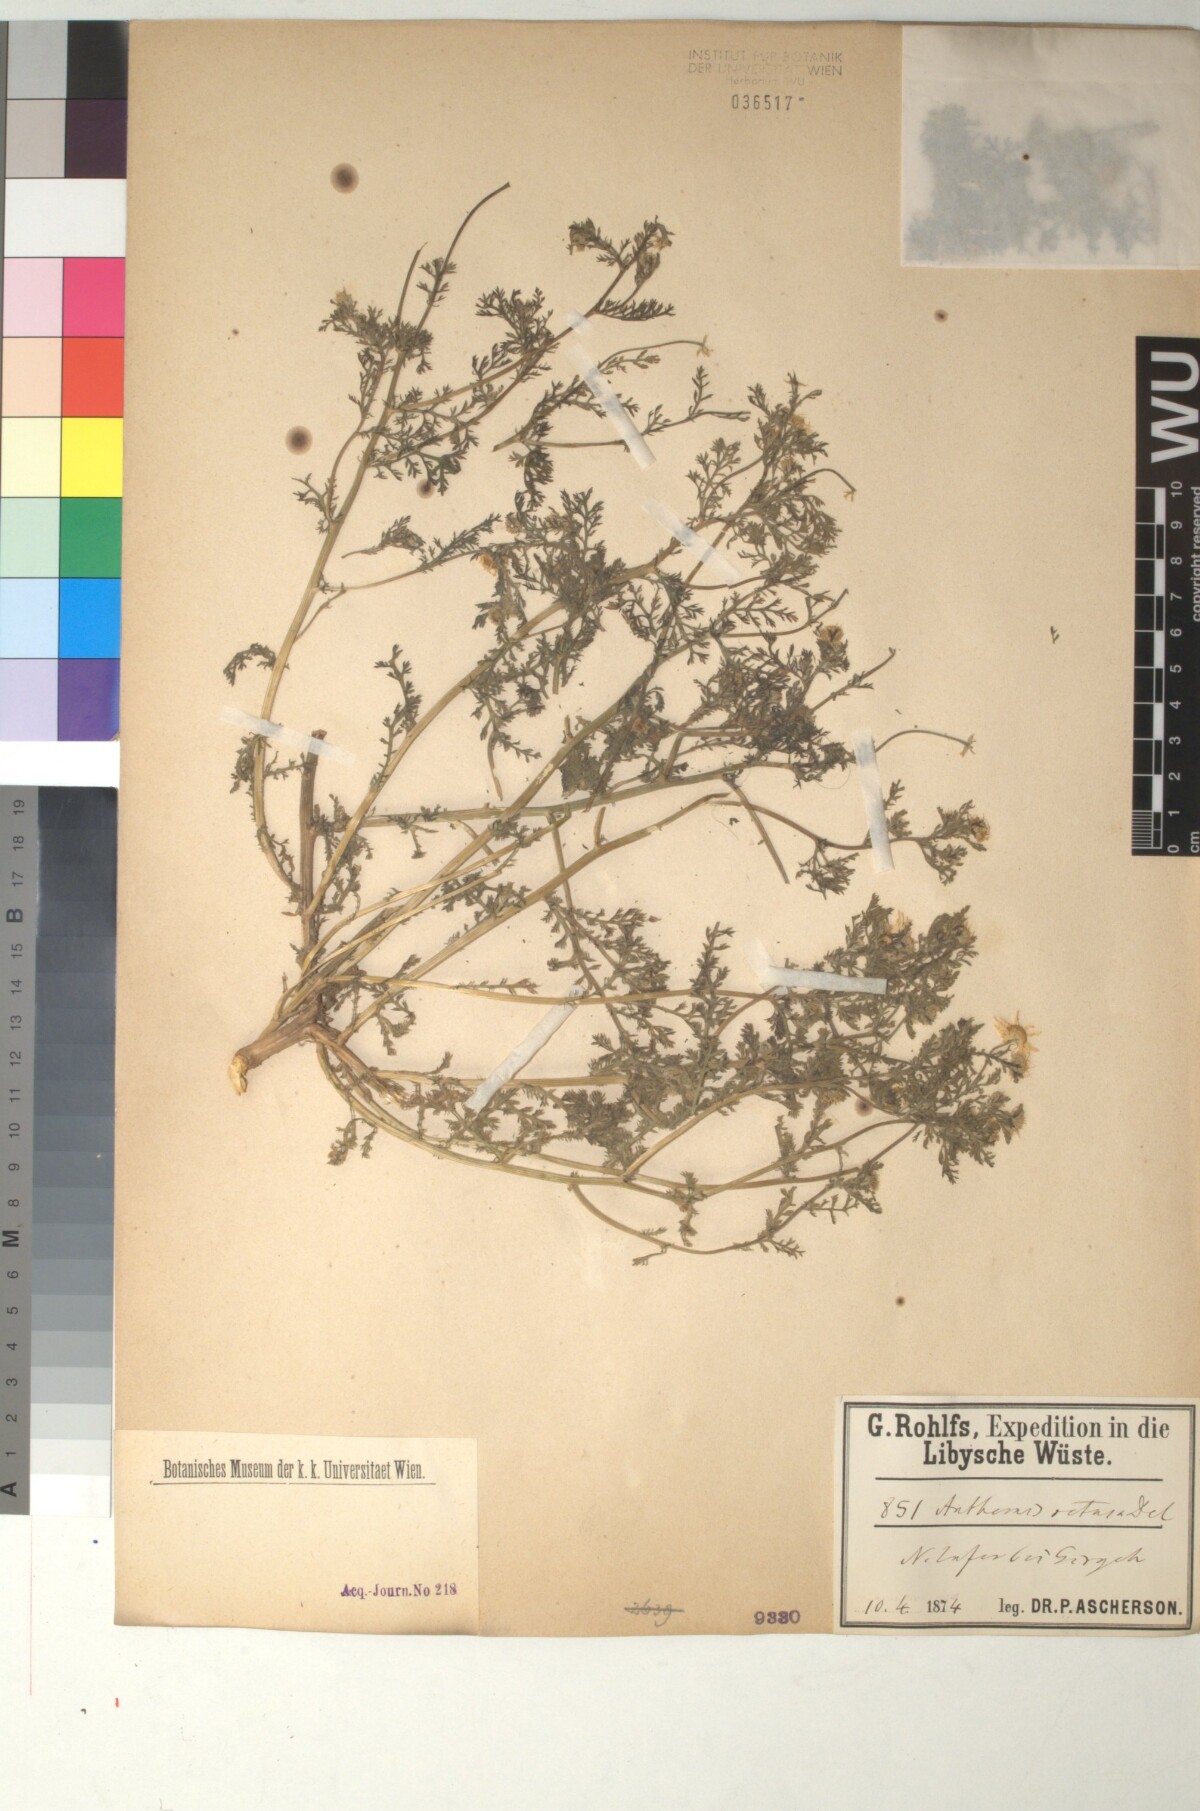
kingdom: Plantae
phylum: Tracheophyta
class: Magnoliopsida
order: Asterales
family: Asteraceae
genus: Anthemis
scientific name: Anthemis retusa
